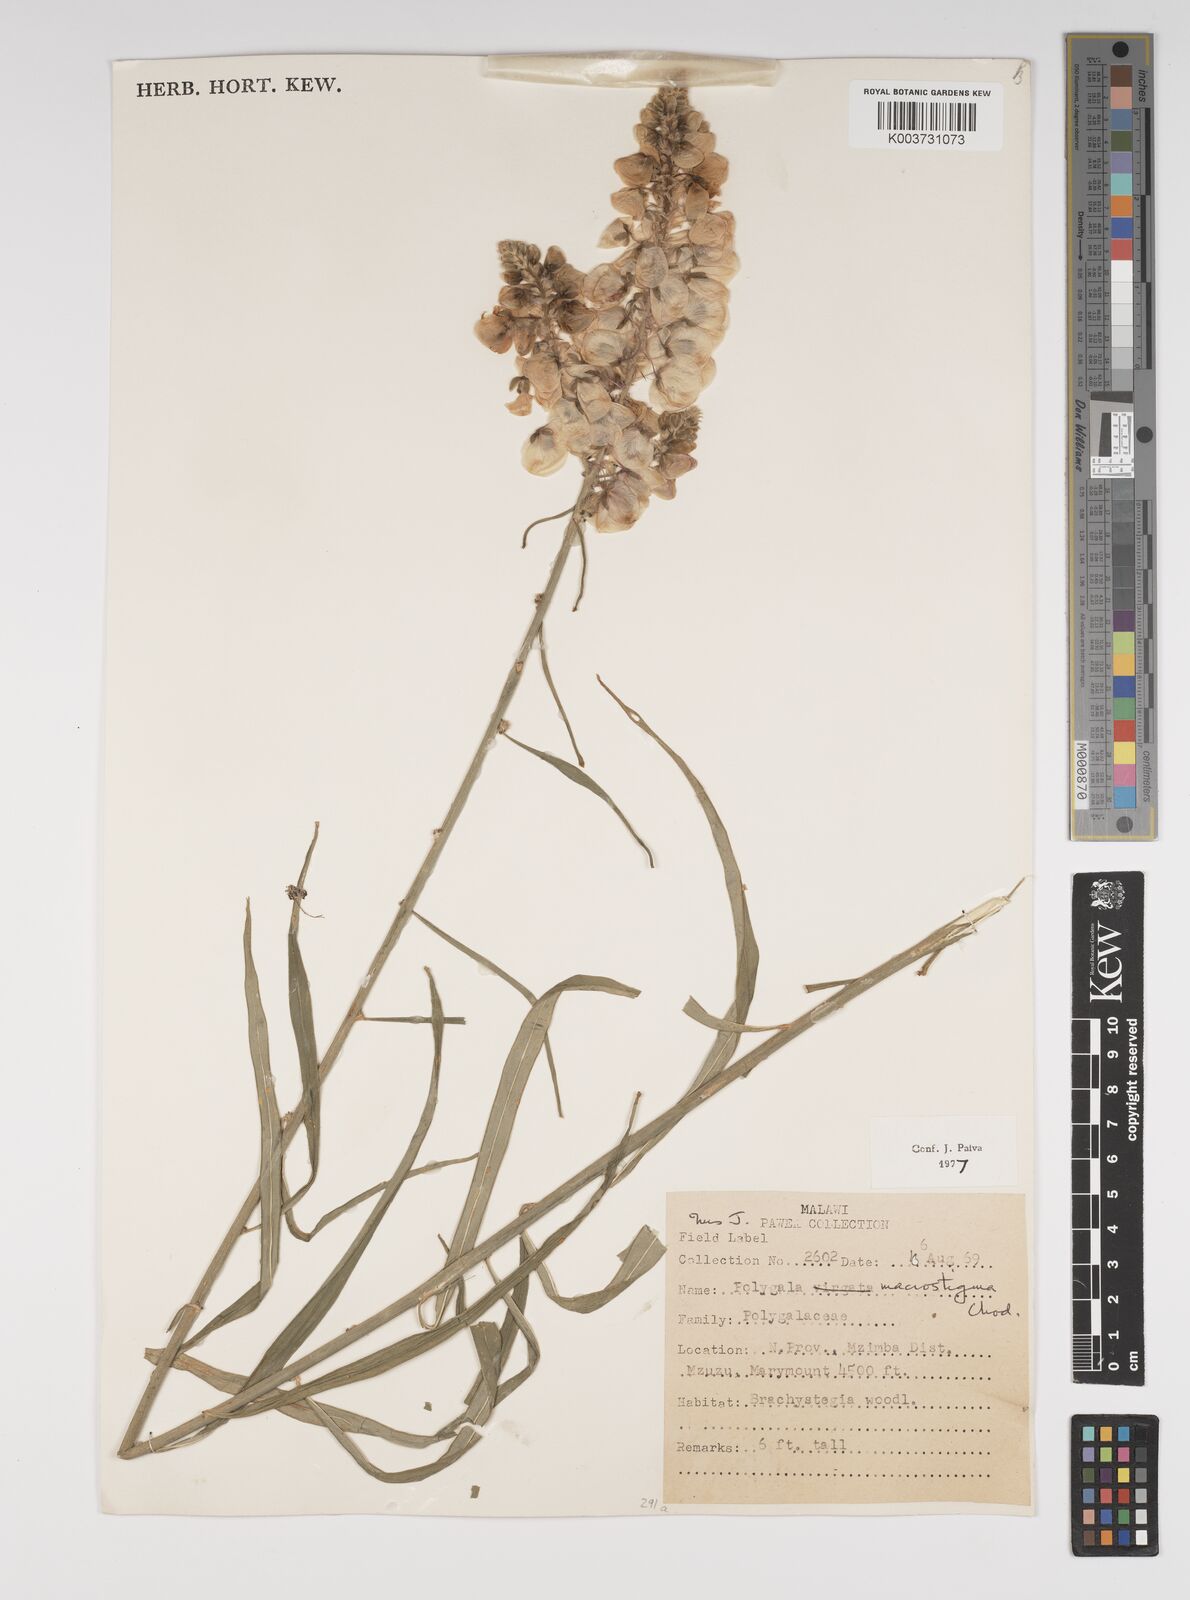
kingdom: Plantae
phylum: Tracheophyta
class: Magnoliopsida
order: Fabales
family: Polygalaceae
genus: Polygala
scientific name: Polygala macrostigma
